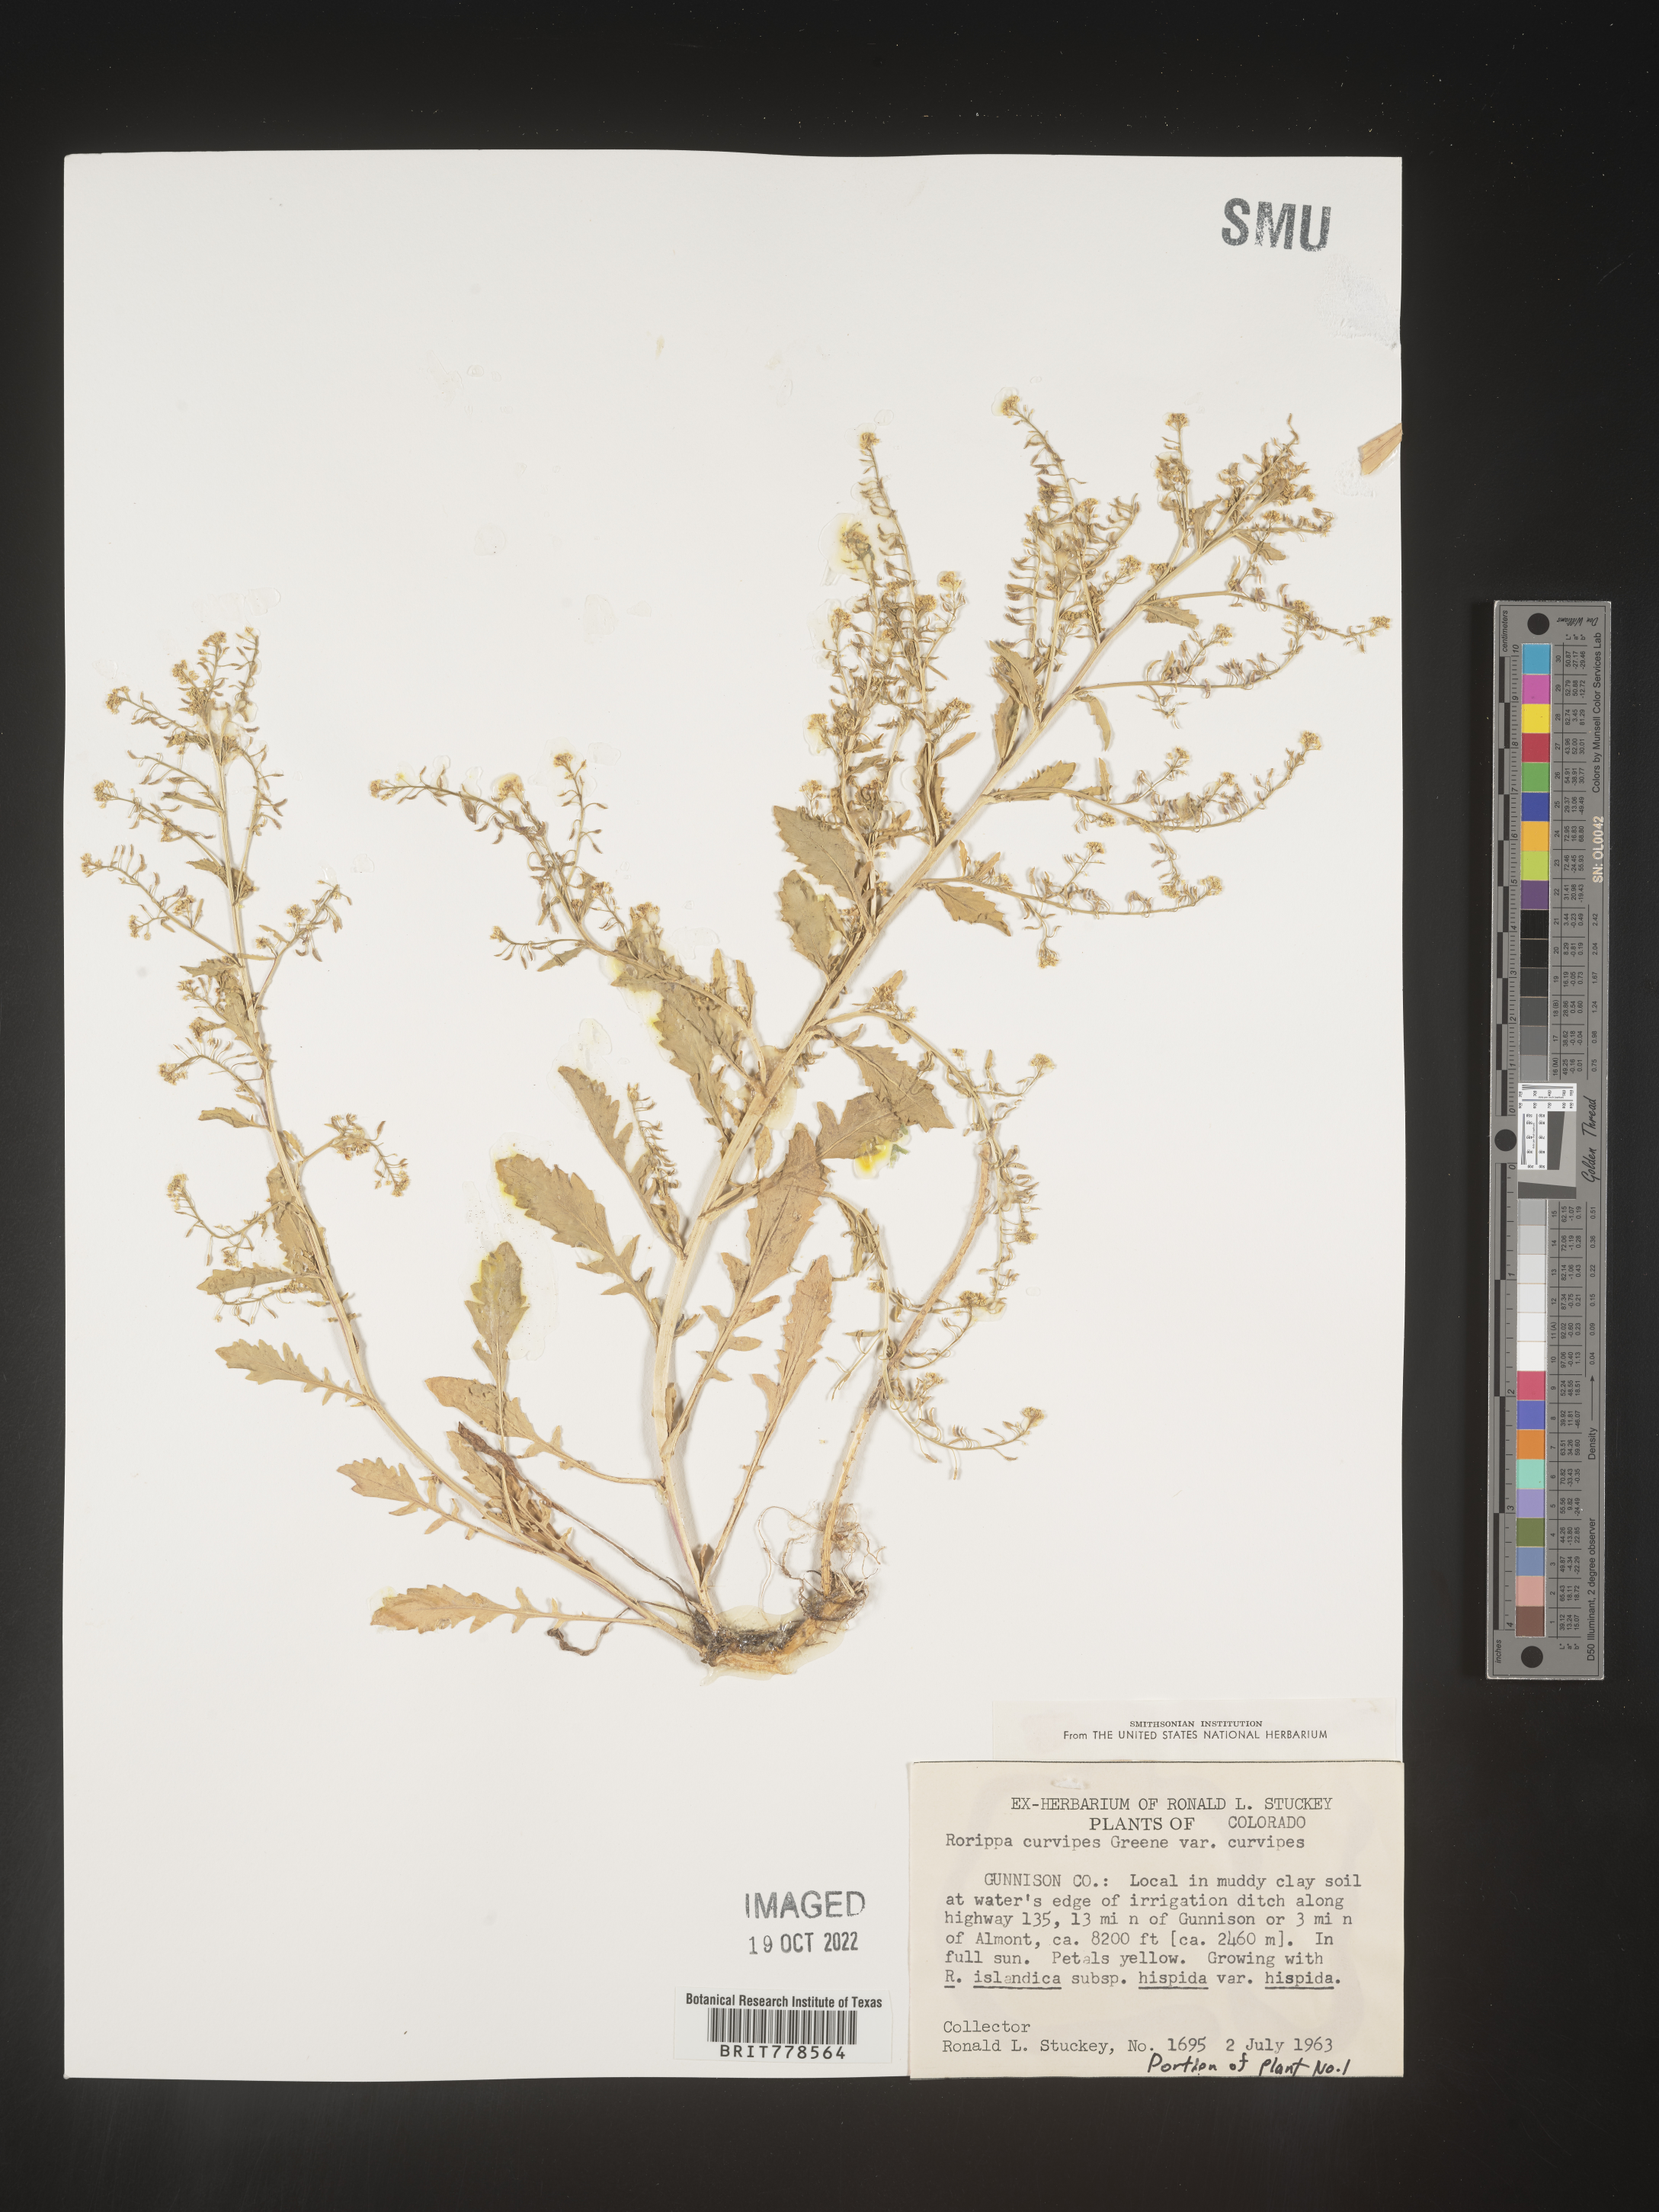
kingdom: Plantae
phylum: Tracheophyta
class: Magnoliopsida
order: Brassicales
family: Brassicaceae
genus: Rorippa
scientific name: Rorippa
